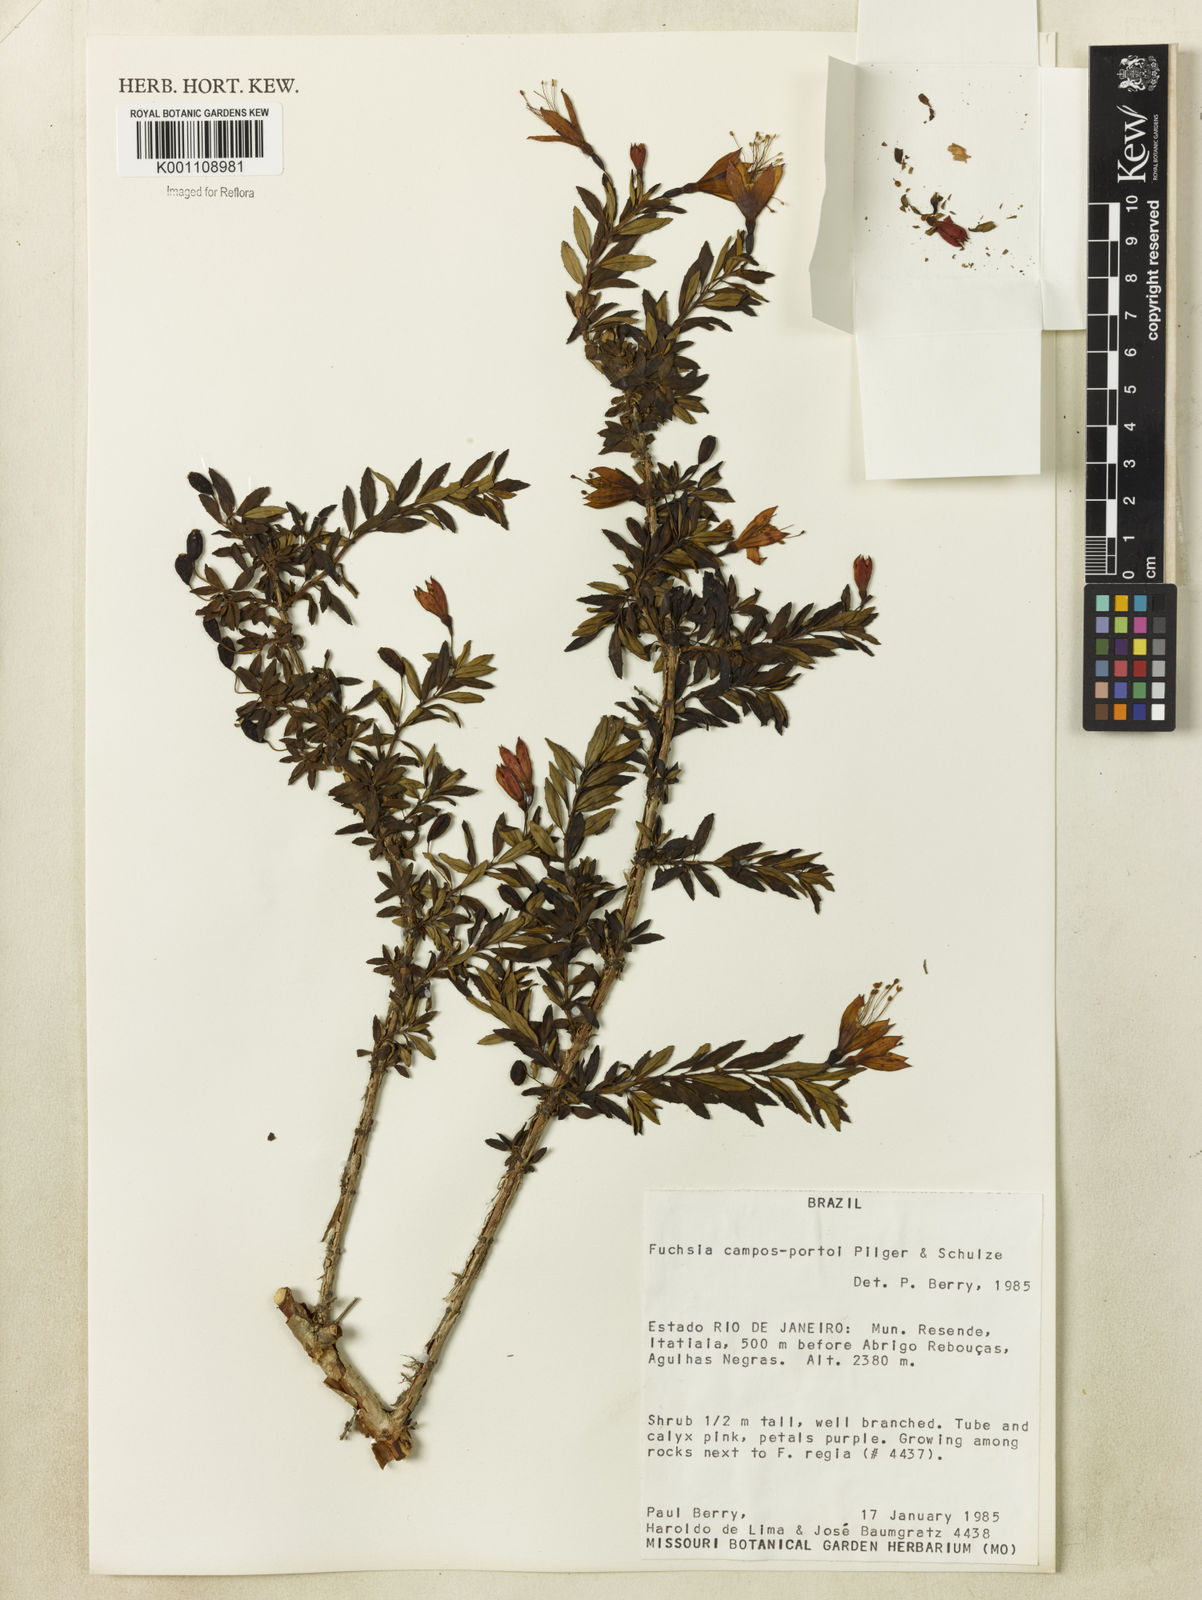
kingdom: Plantae
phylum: Tracheophyta
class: Magnoliopsida
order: Myrtales
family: Onagraceae
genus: Fuchsia
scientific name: Fuchsia campos-portoi
